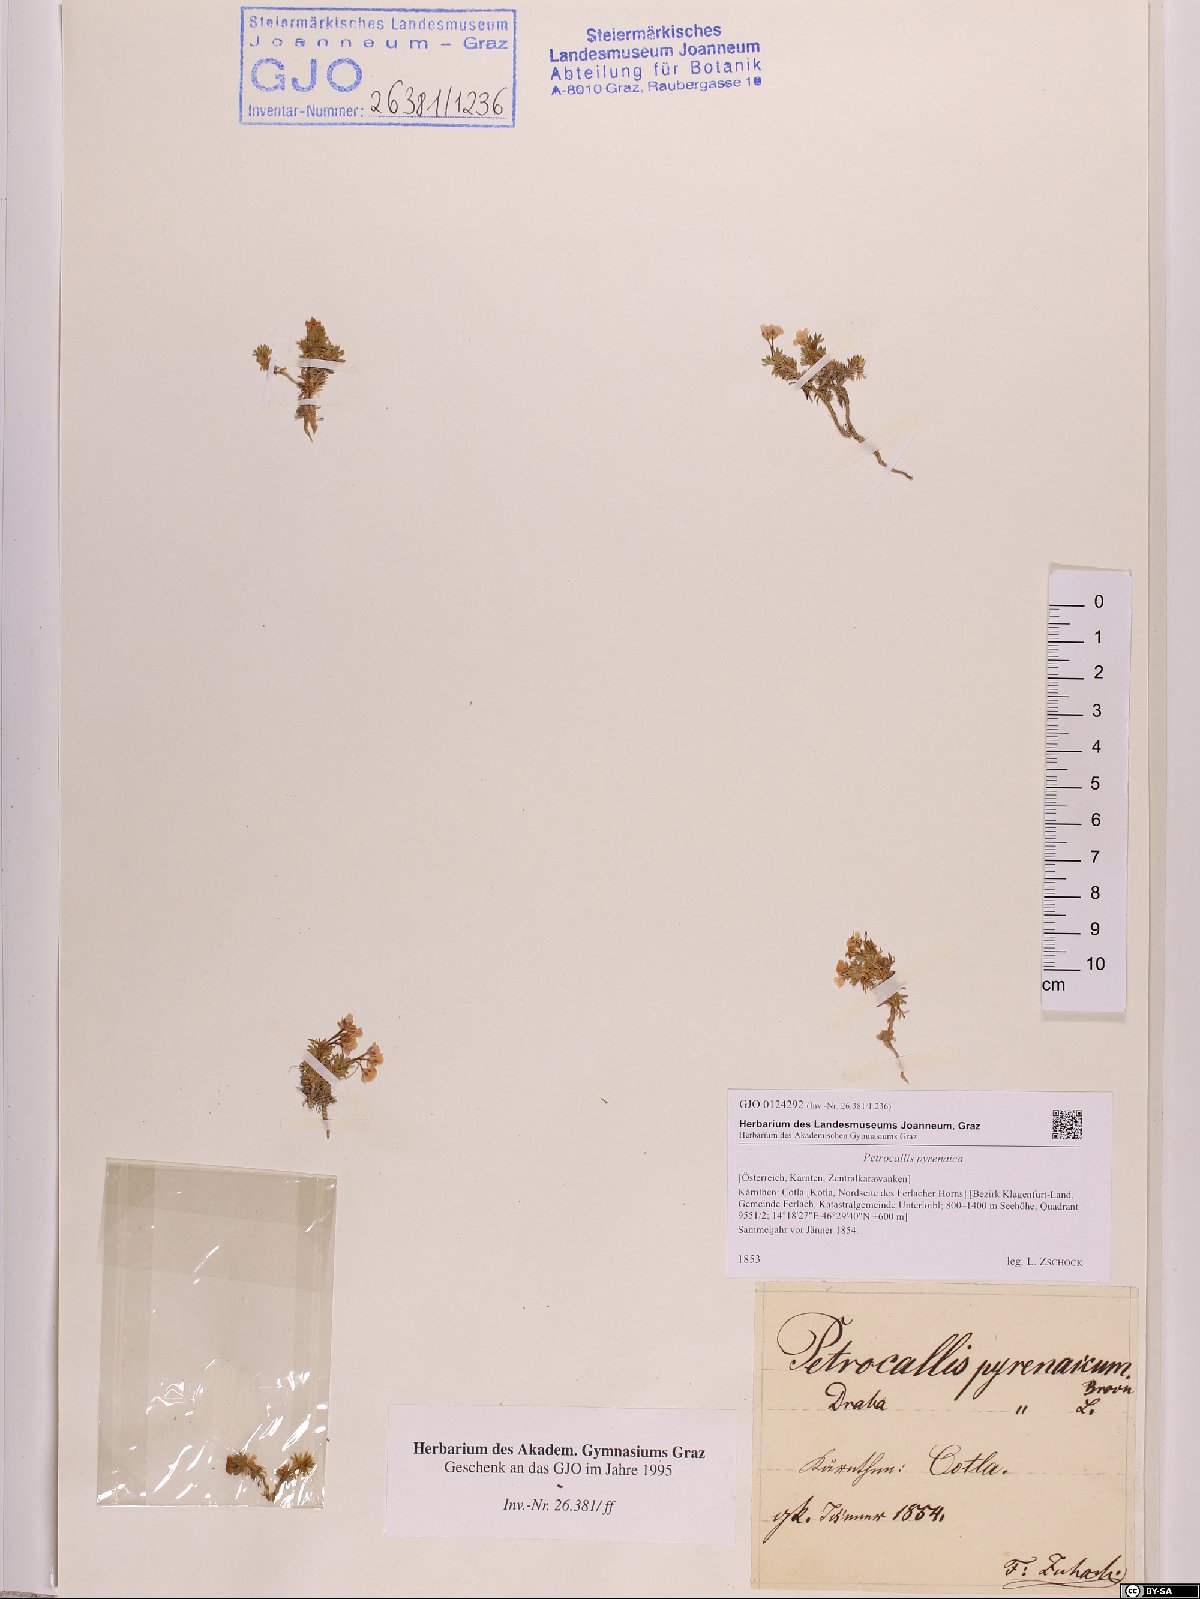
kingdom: Plantae
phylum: Tracheophyta
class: Magnoliopsida
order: Brassicales
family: Brassicaceae
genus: Petrocallis
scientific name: Petrocallis pyrenaica
